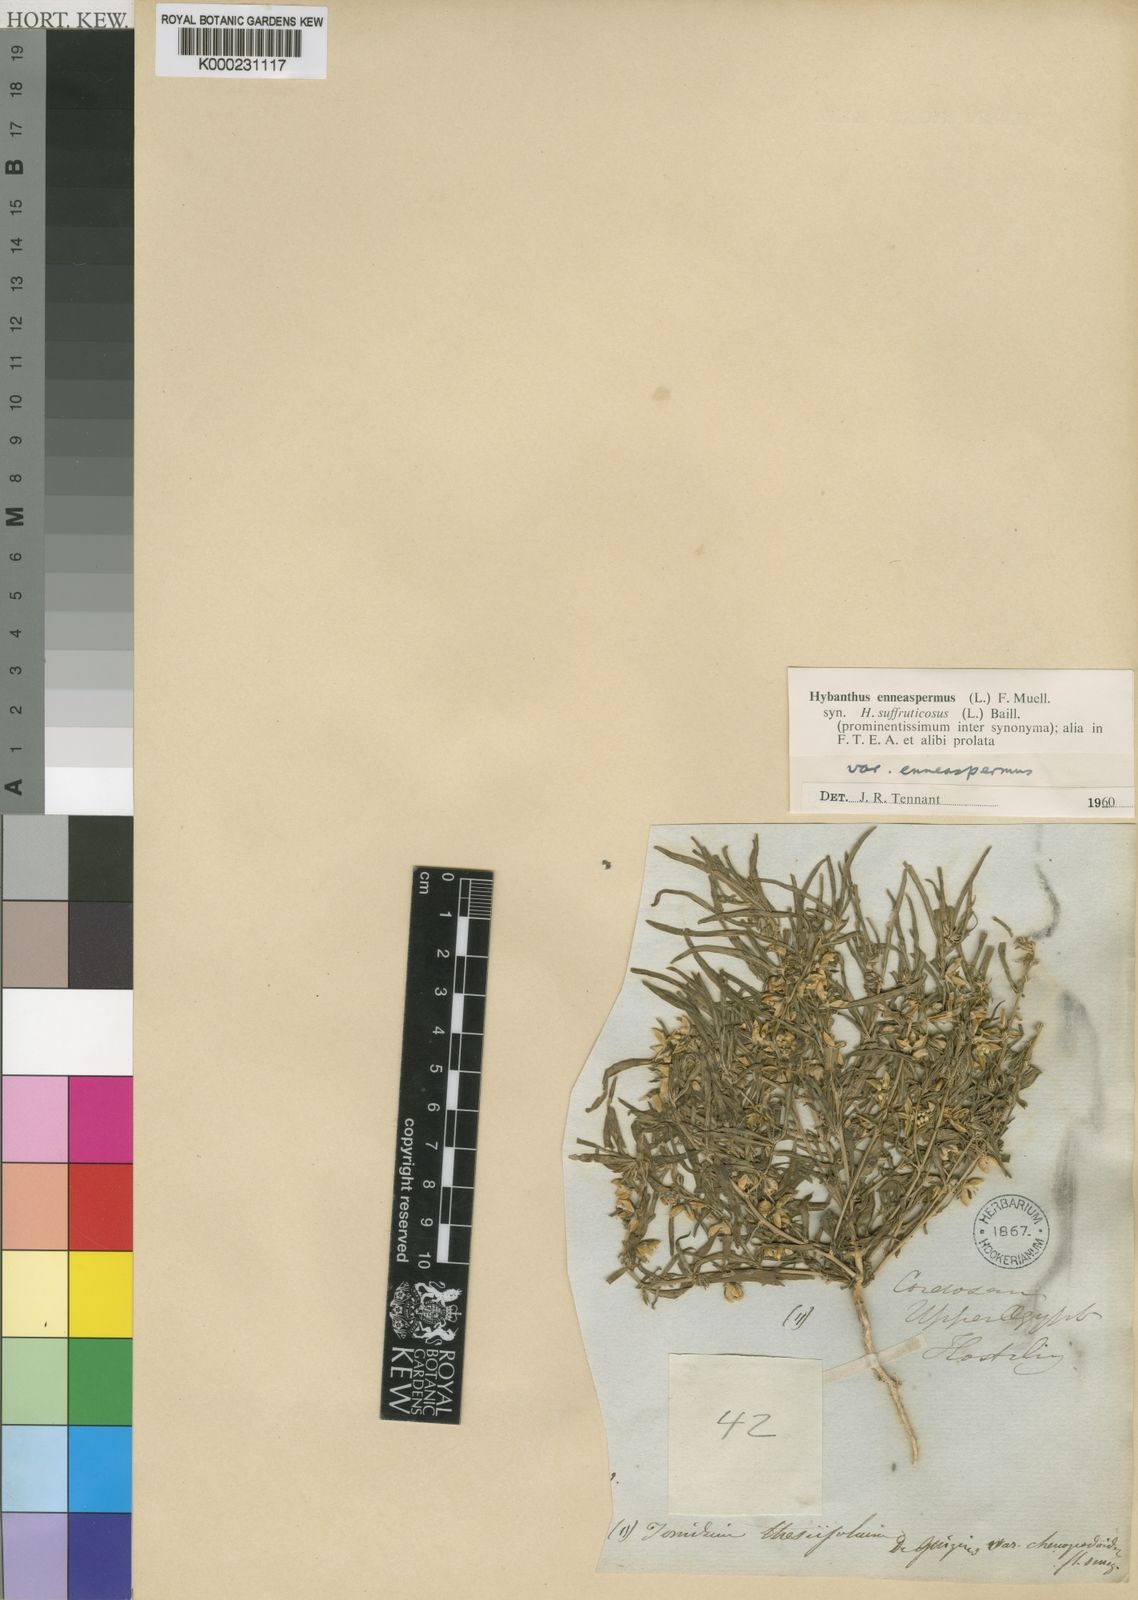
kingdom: Plantae
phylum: Tracheophyta
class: Magnoliopsida
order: Malpighiales
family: Violaceae
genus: Hybanthus
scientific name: Hybanthus
